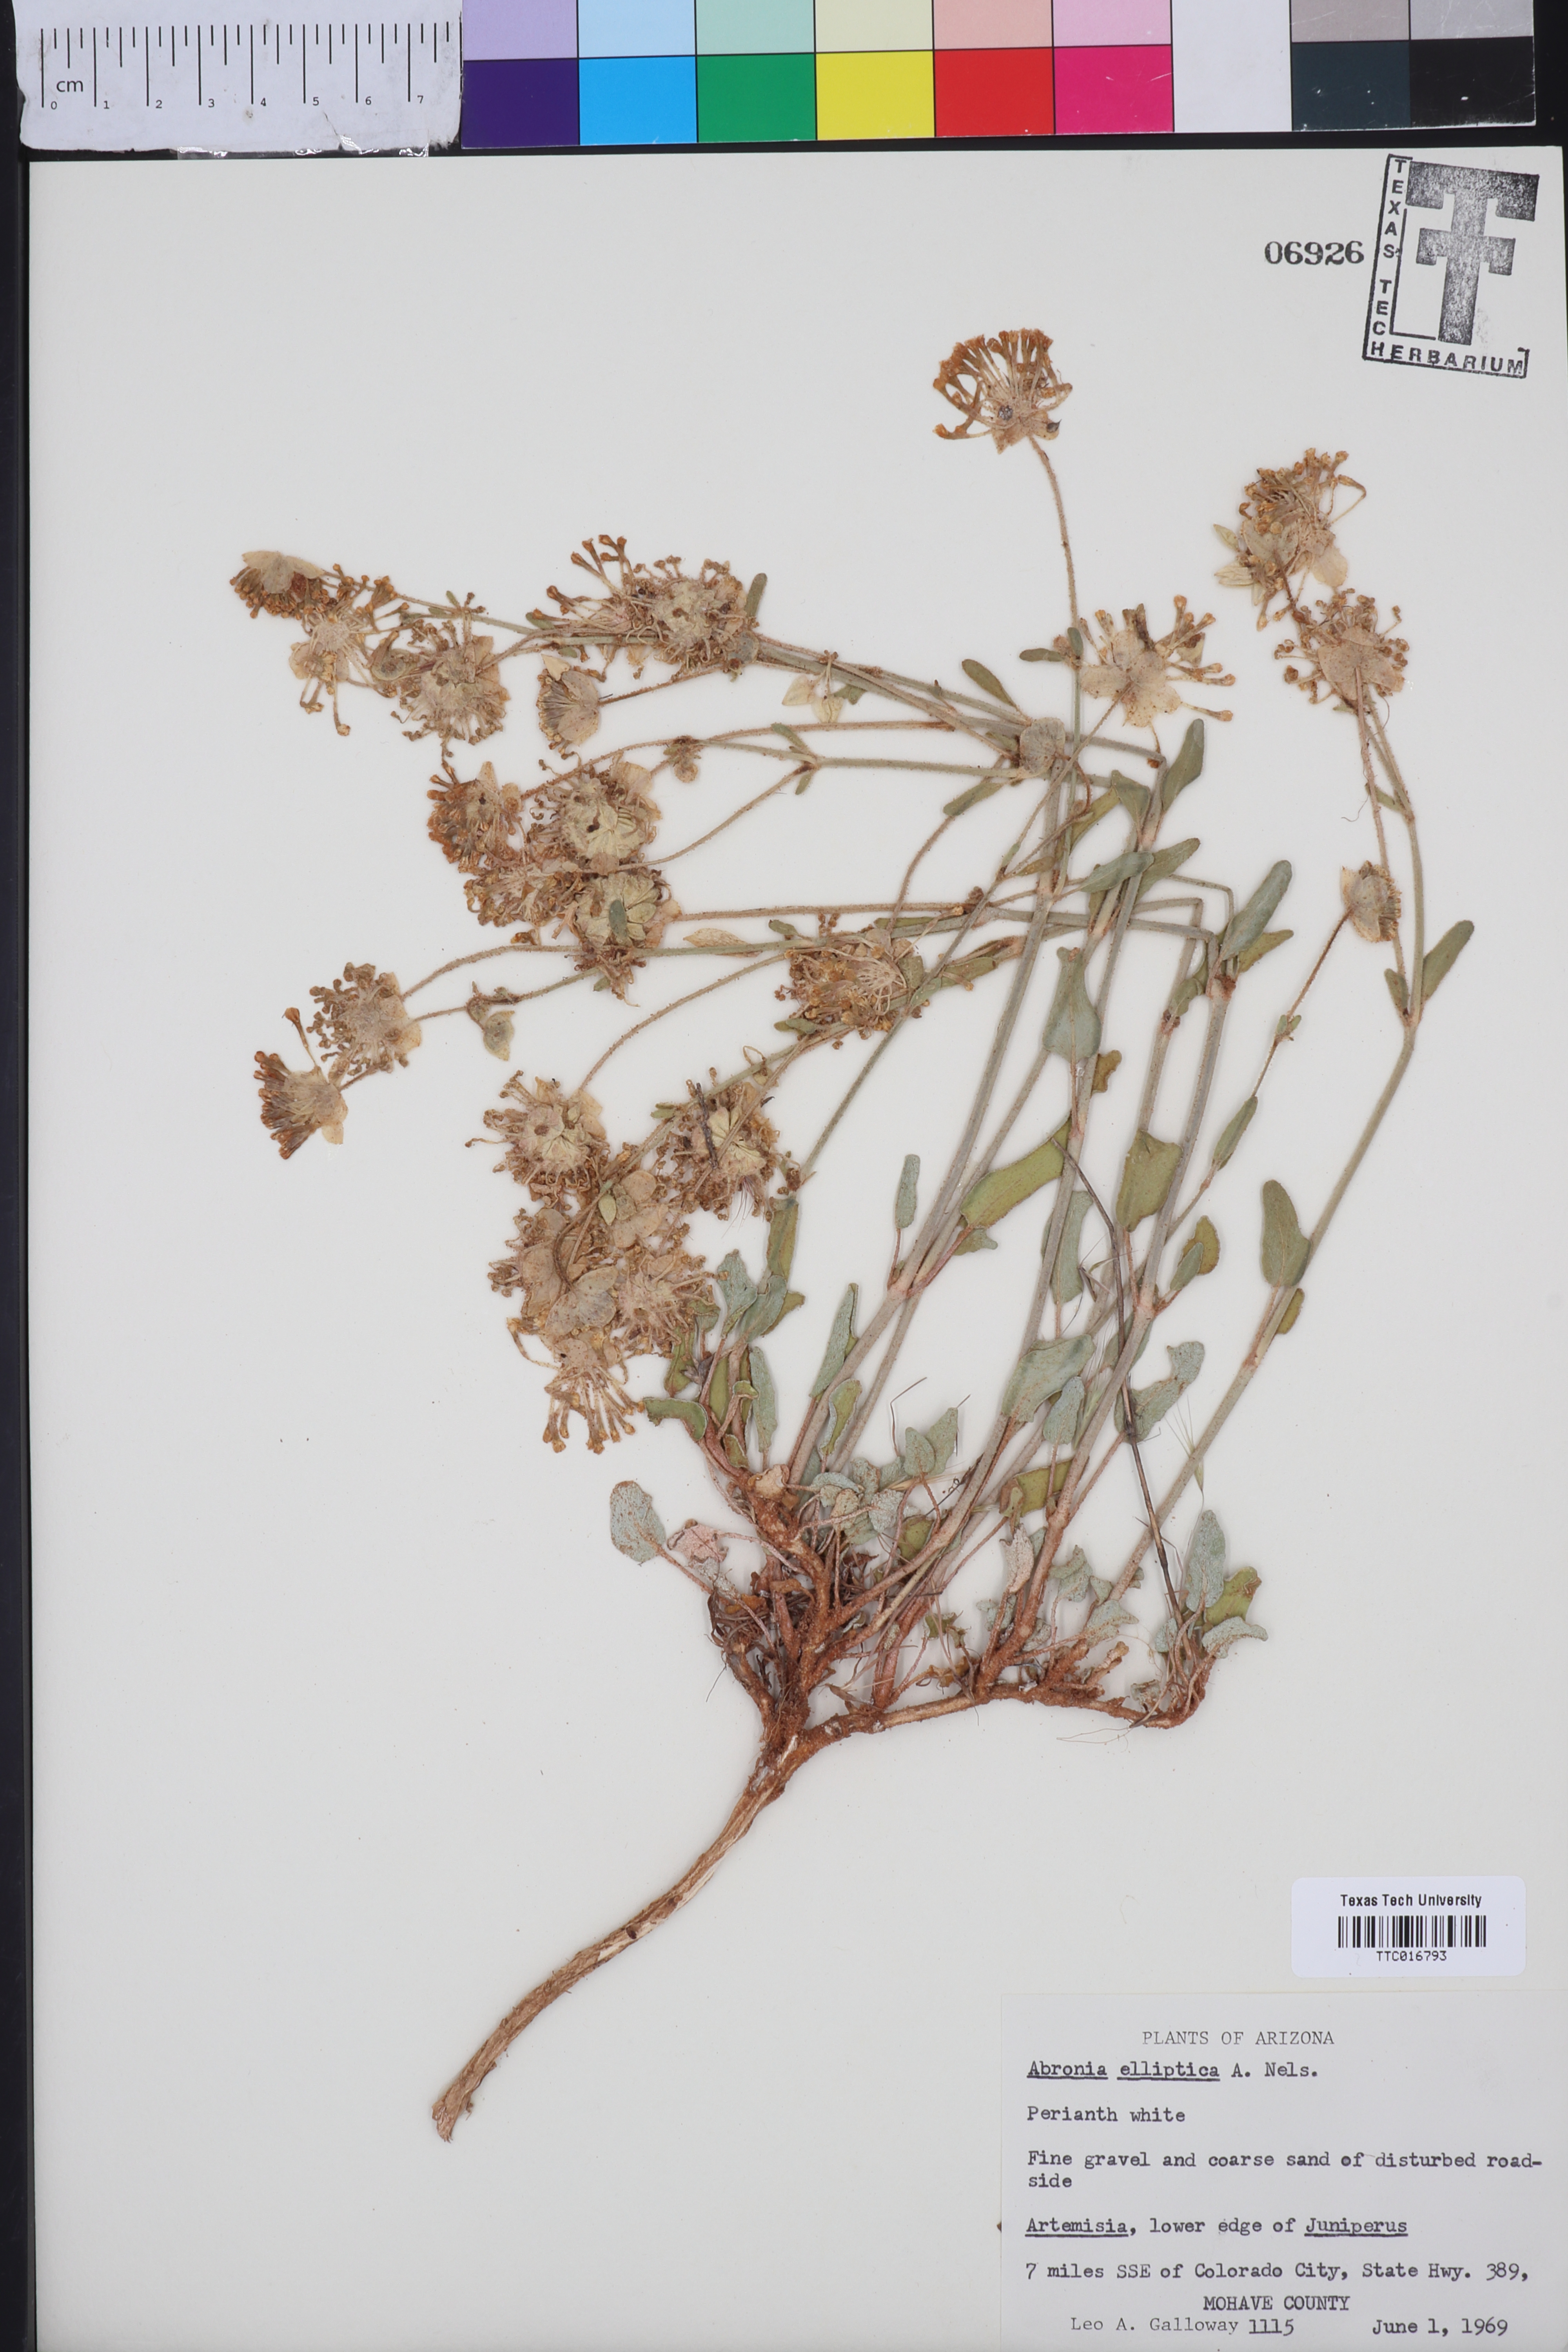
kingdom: Plantae
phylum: Tracheophyta
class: Magnoliopsida
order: Caryophyllales
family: Nyctaginaceae
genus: Abronia
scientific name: Abronia elliptica
